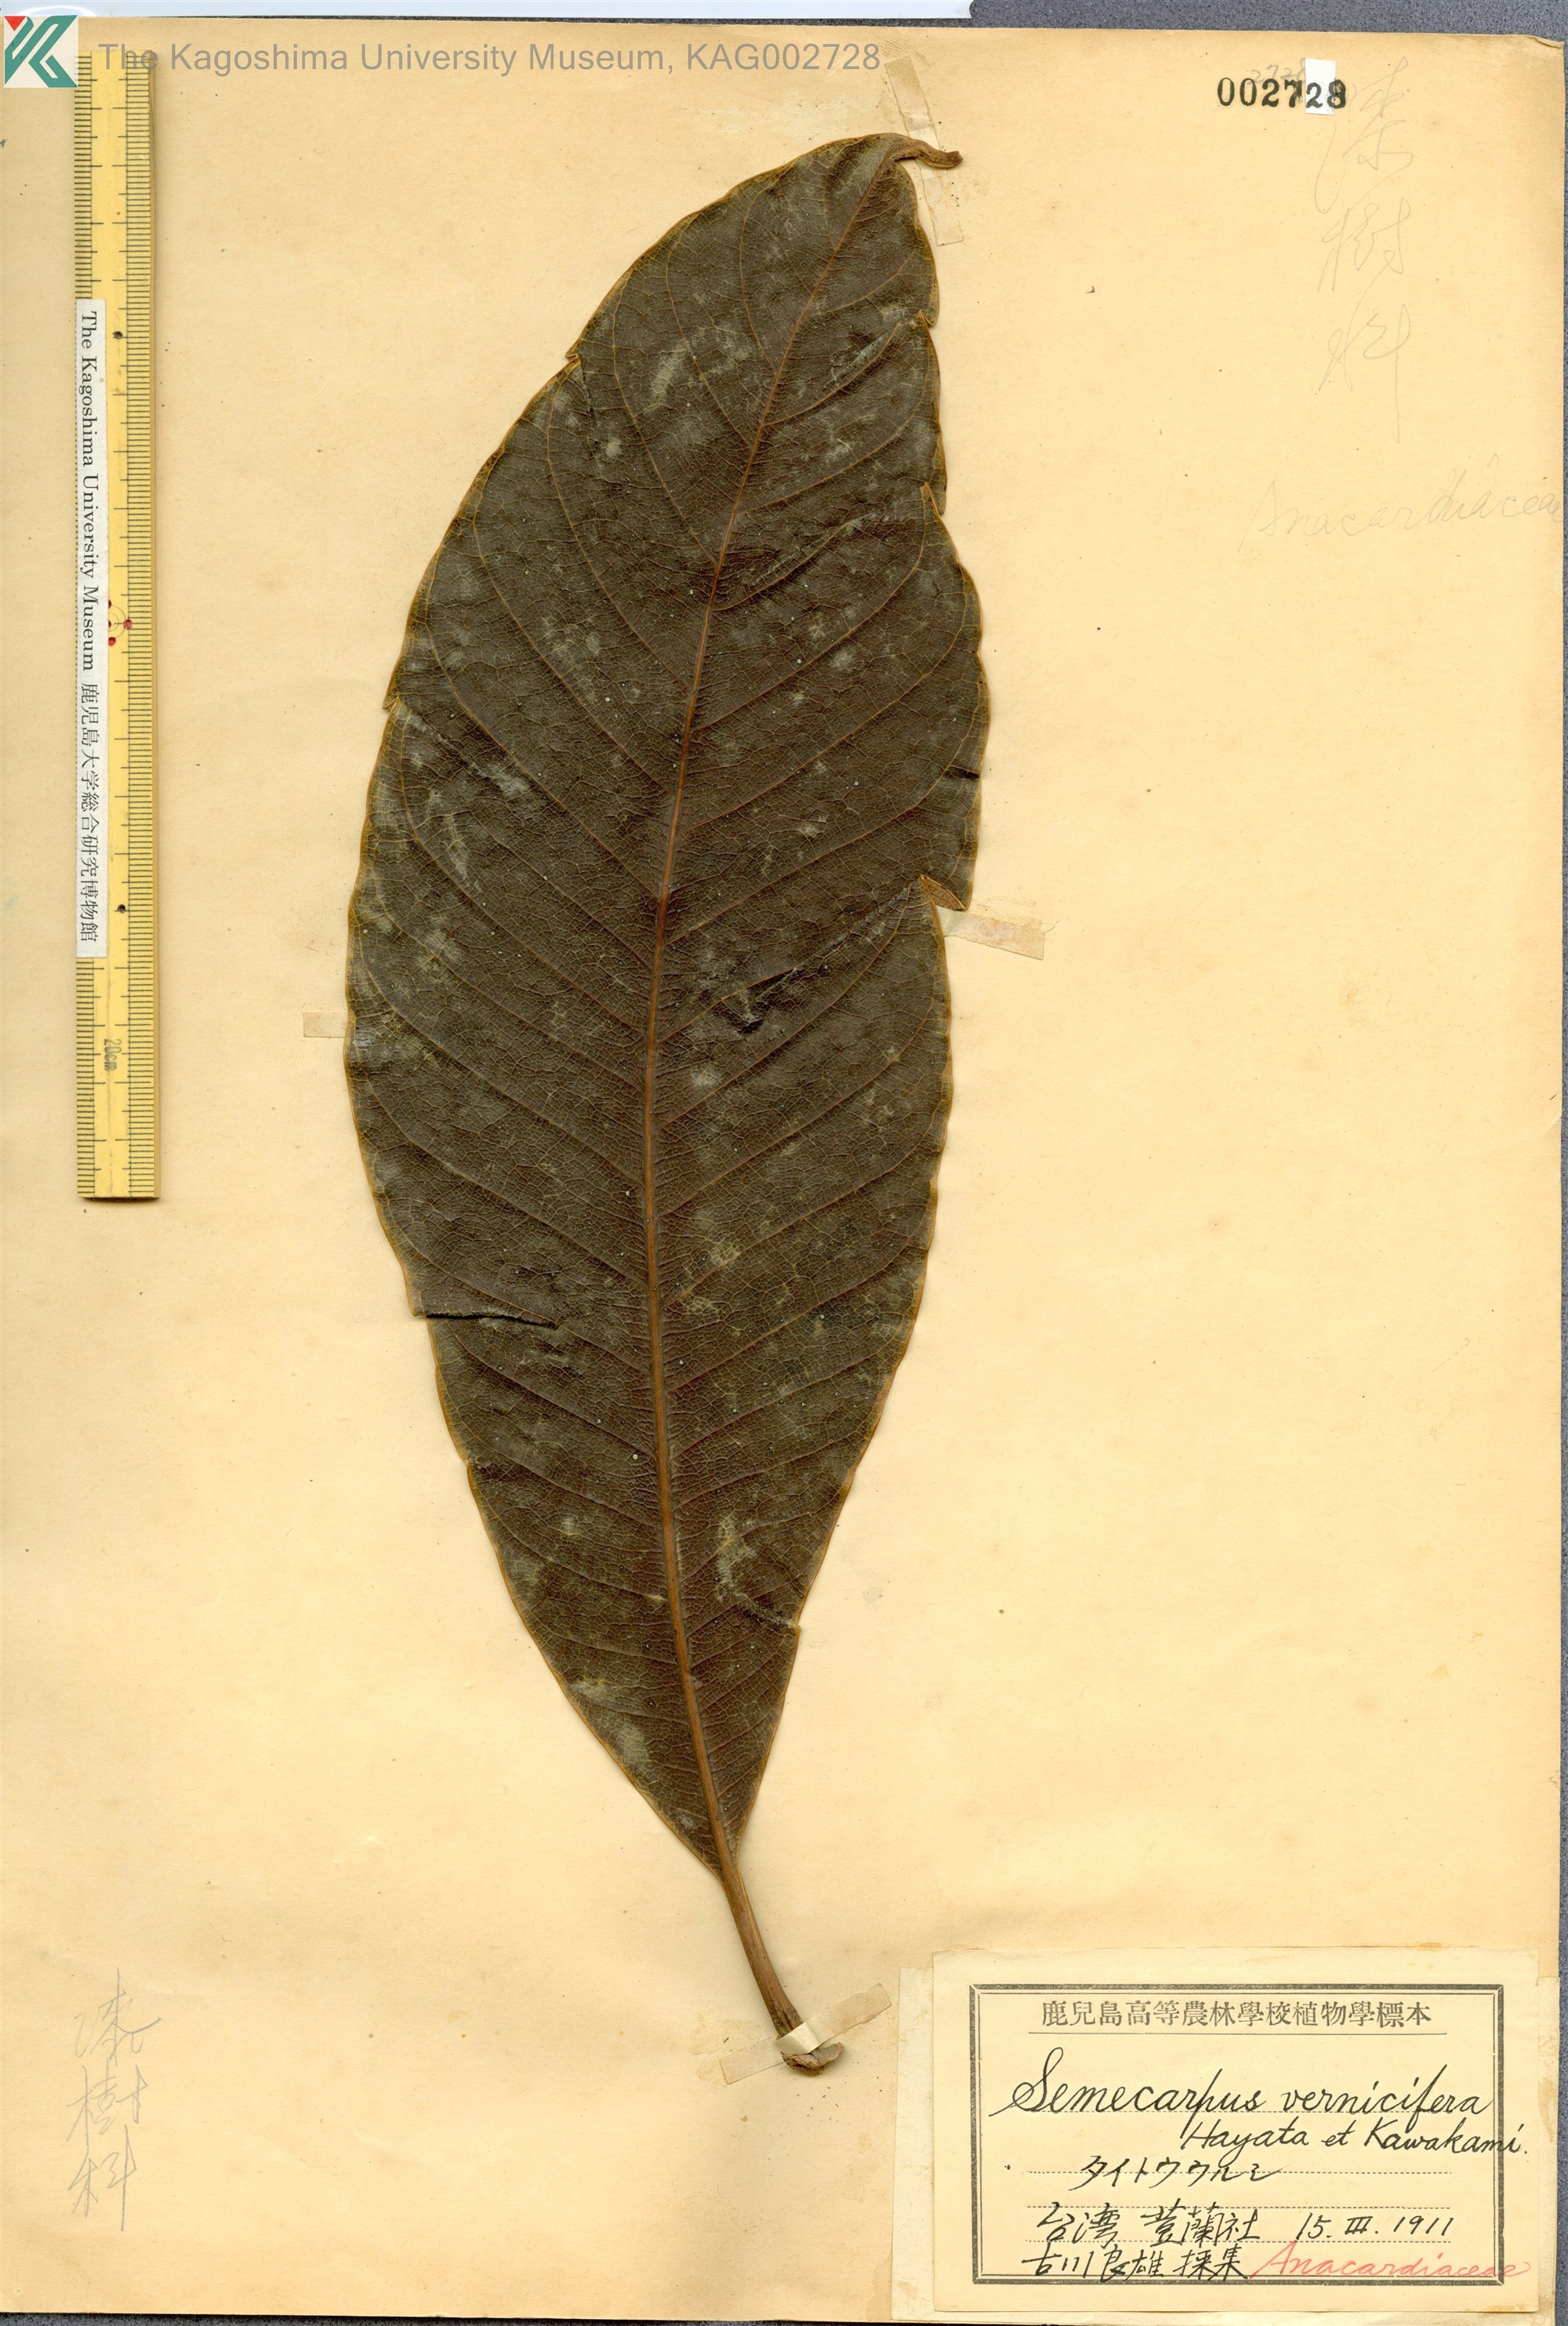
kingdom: Plantae
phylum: Tracheophyta
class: Magnoliopsida
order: Sapindales
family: Anacardiaceae
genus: Semecarpus
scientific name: Semecarpus verniciferus
